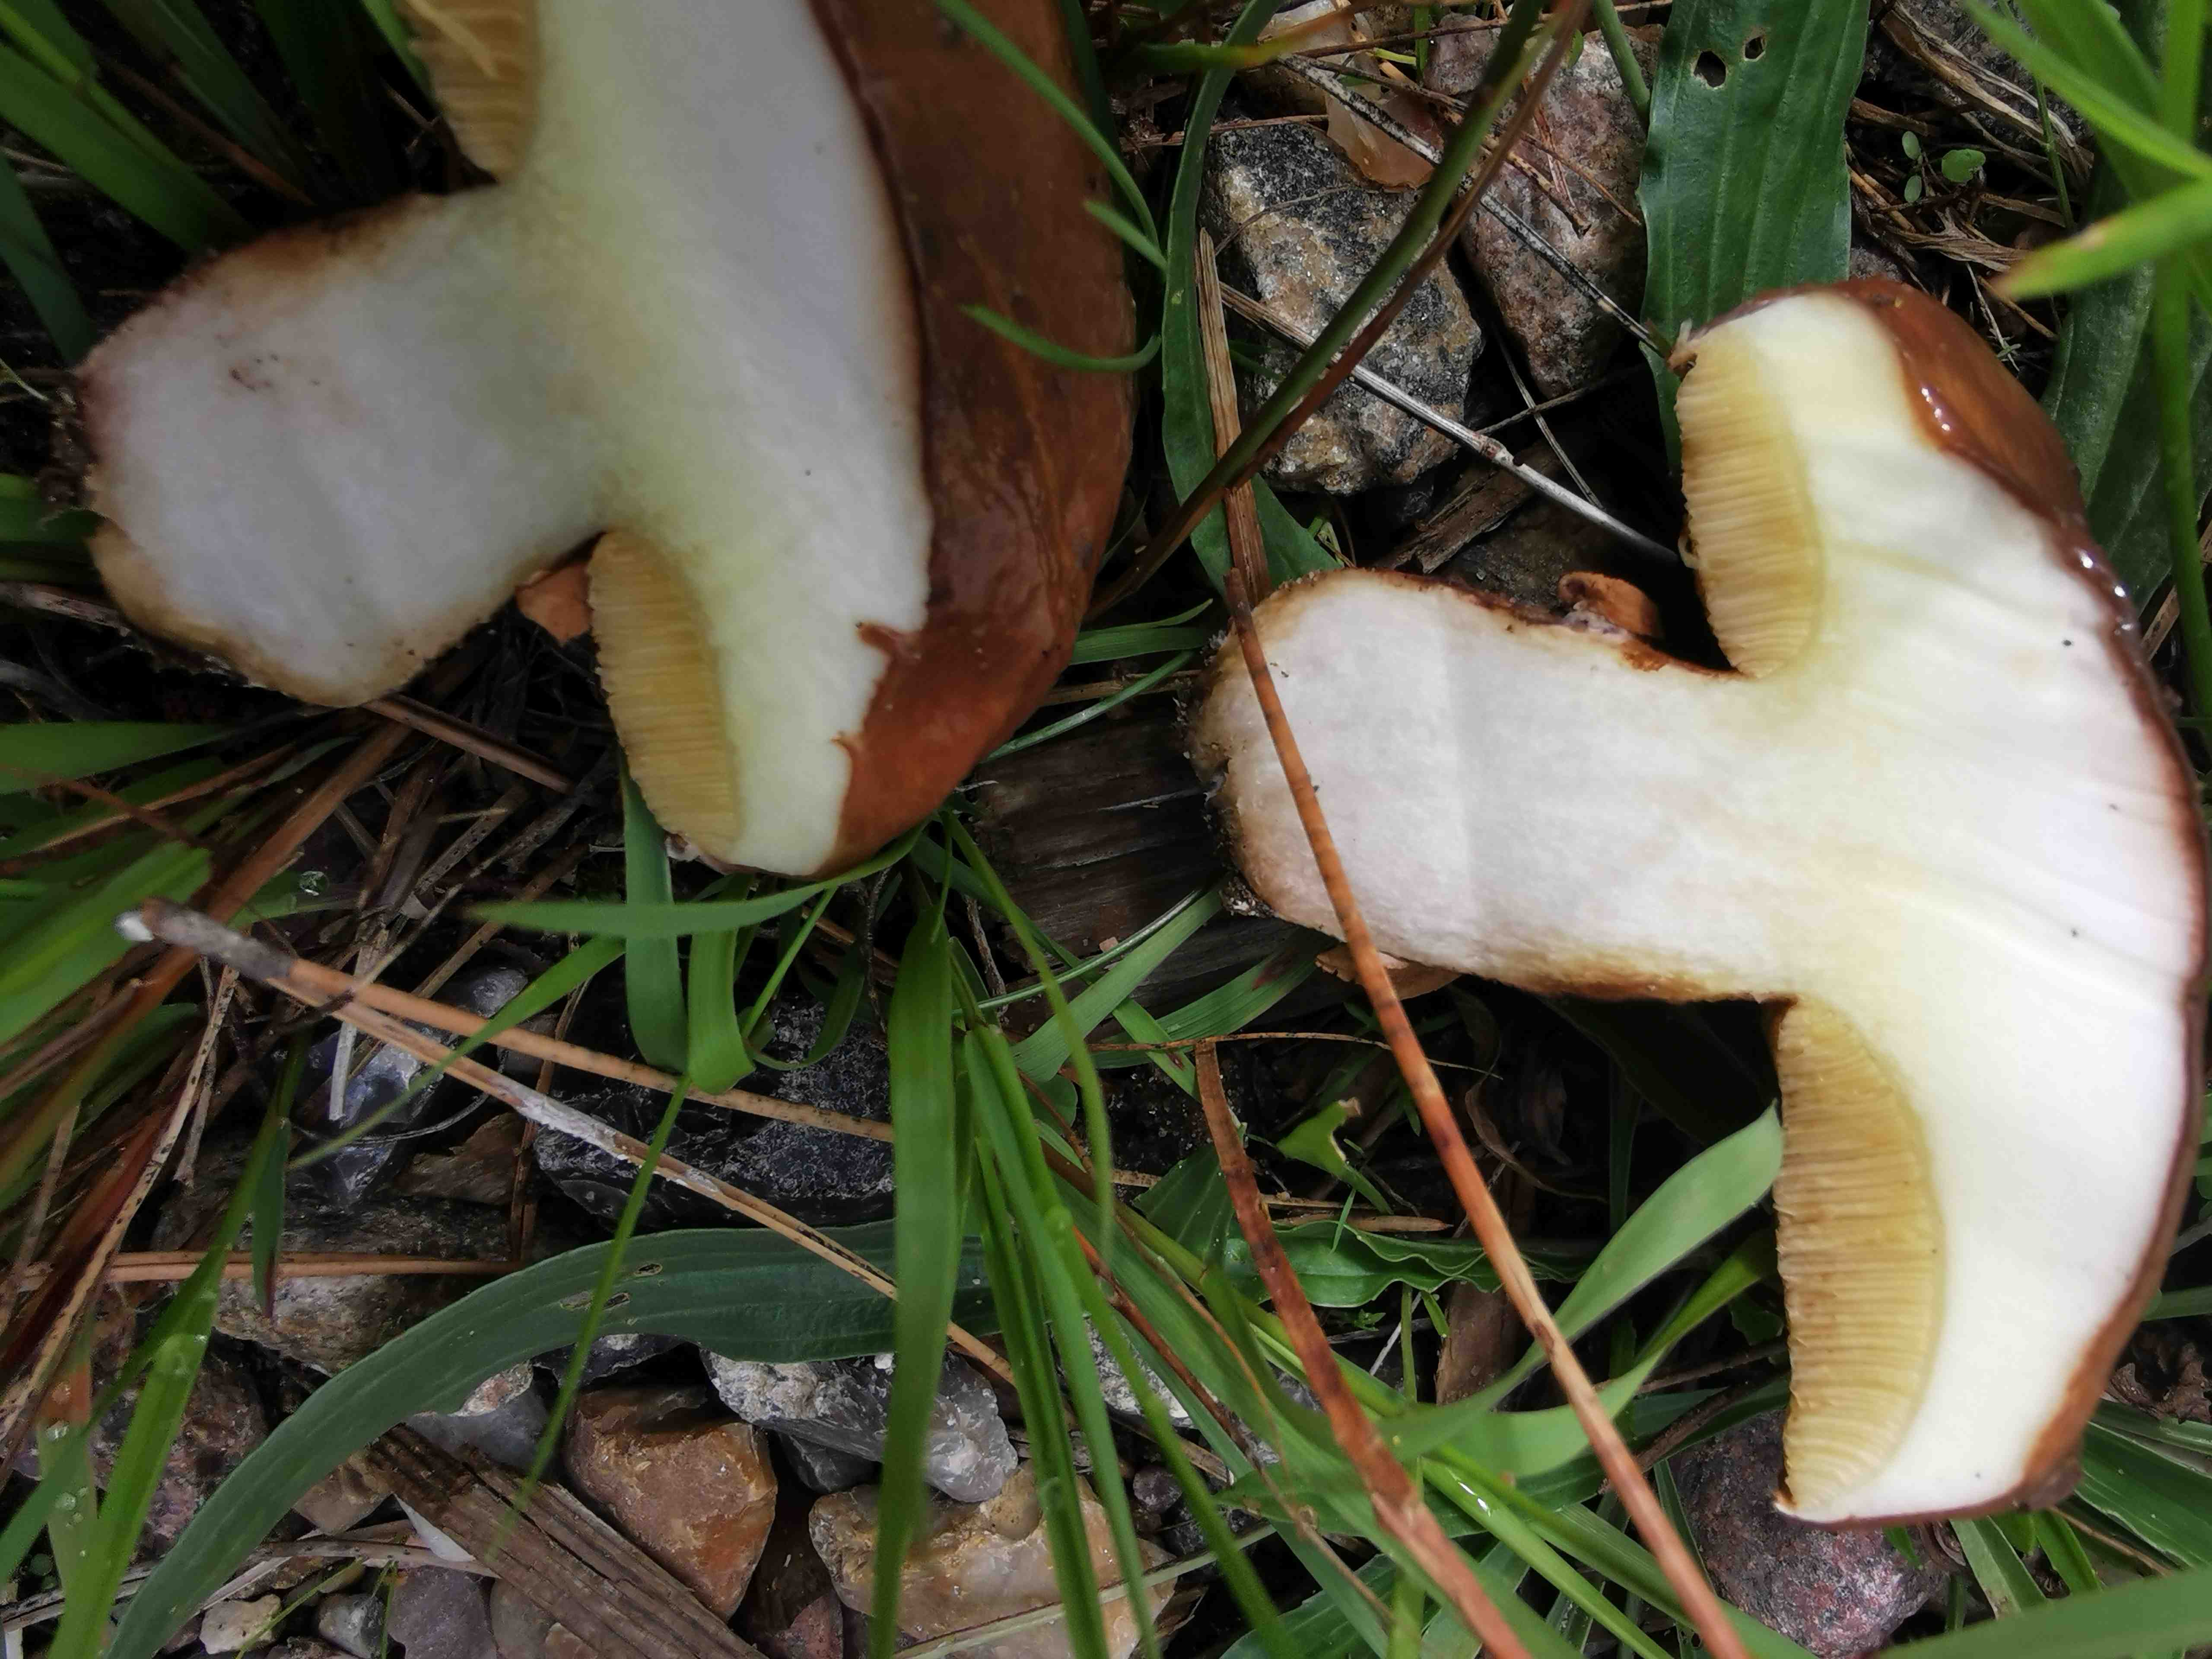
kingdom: Fungi
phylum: Basidiomycota
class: Agaricomycetes
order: Boletales
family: Suillaceae
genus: Suillus
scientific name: Suillus luteus
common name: brungul slimrørhat
